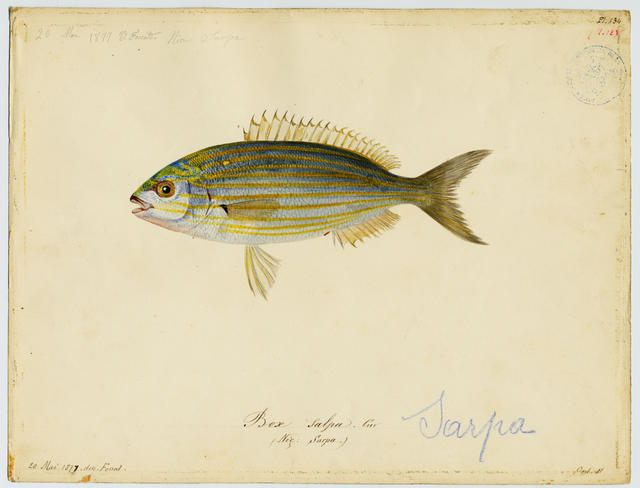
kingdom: Animalia
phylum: Chordata
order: Perciformes
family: Sparidae
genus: Sarpa
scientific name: Sarpa salpa
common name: Salema
